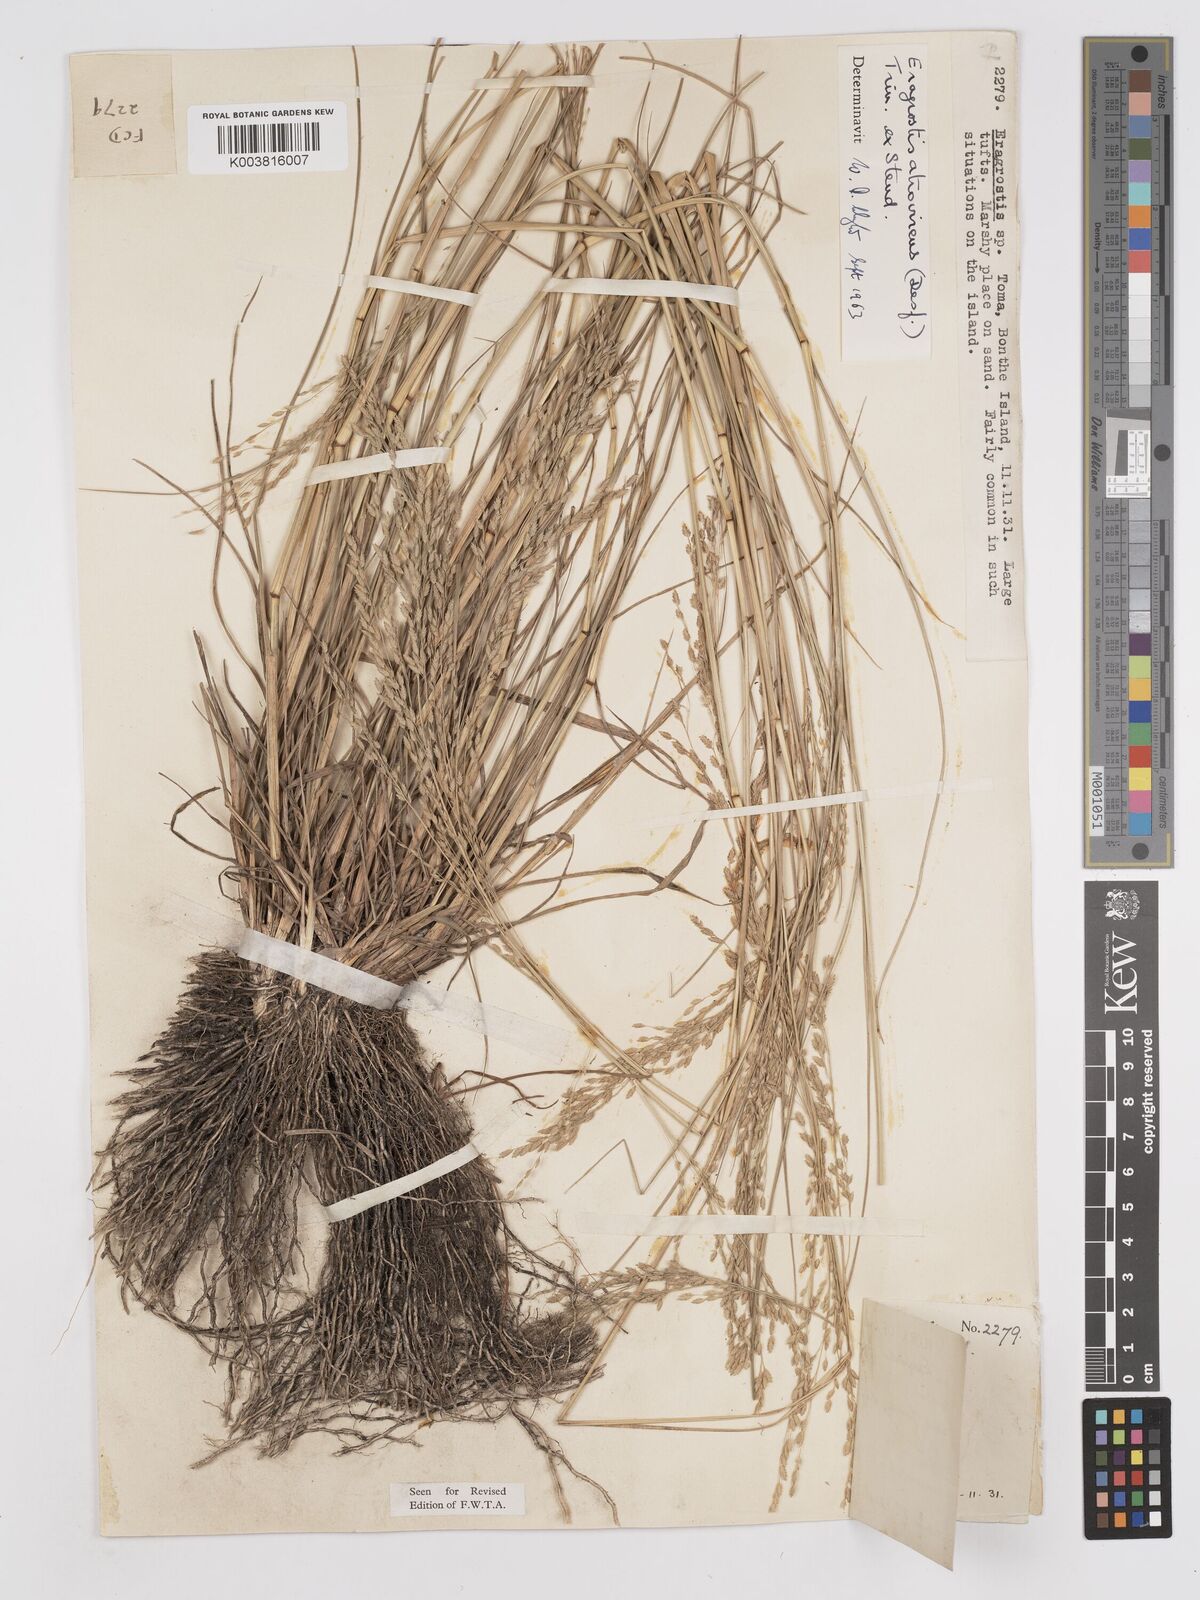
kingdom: Plantae
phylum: Tracheophyta
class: Liliopsida
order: Poales
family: Poaceae
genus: Eragrostis
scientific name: Eragrostis atrovirens
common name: Thalia lovegrass
